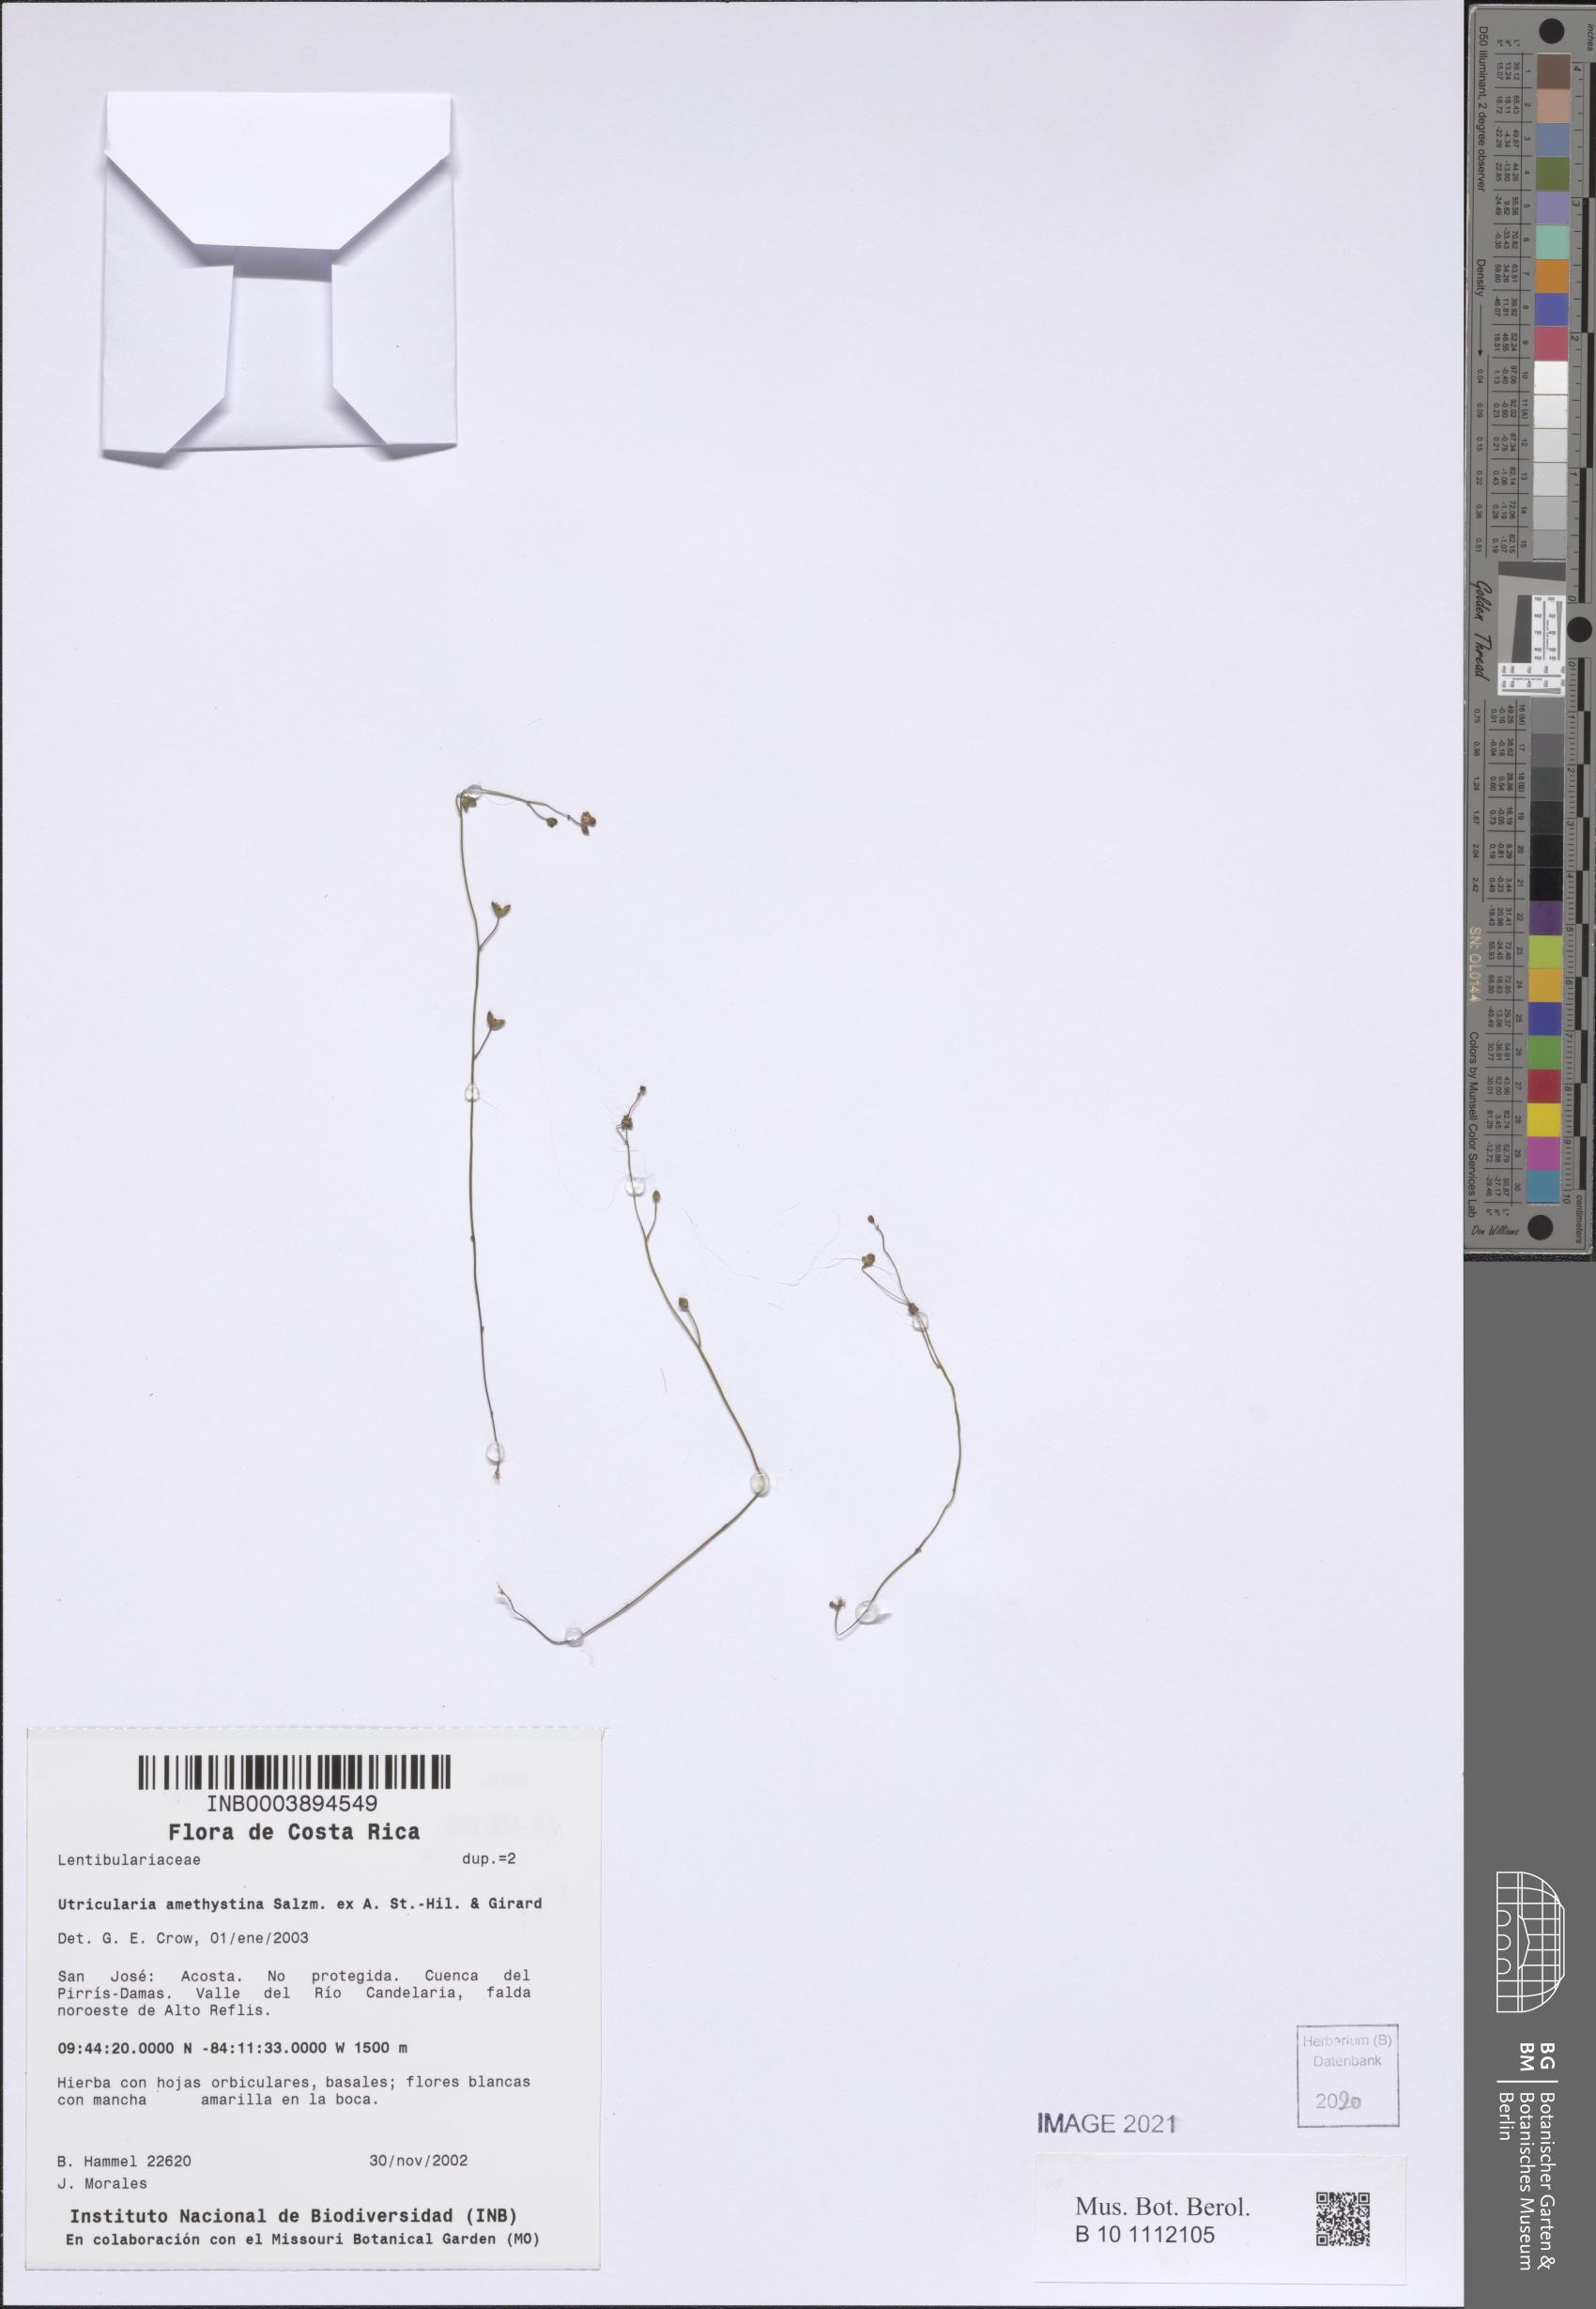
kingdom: Plantae
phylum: Tracheophyta
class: Magnoliopsida
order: Lamiales
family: Lentibulariaceae
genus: Utricularia
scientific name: Utricularia amethystina
